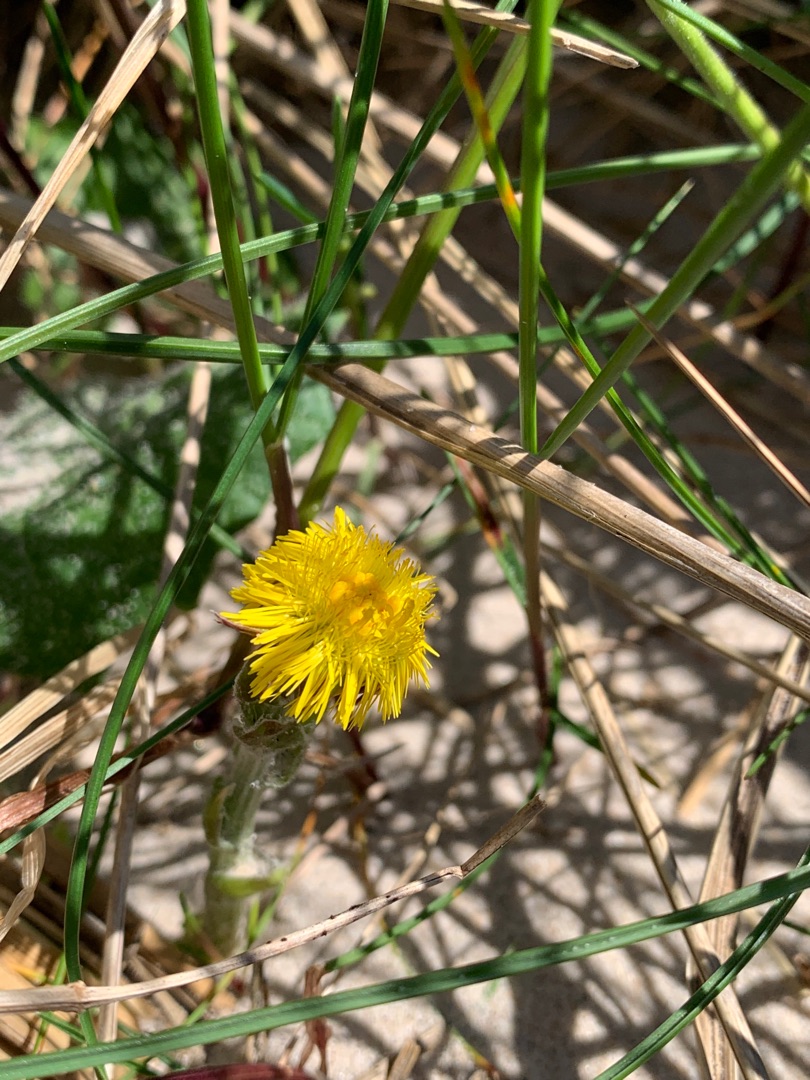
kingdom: Plantae
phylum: Tracheophyta
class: Magnoliopsida
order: Asterales
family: Asteraceae
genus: Tussilago
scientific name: Tussilago farfara
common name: Følfod
